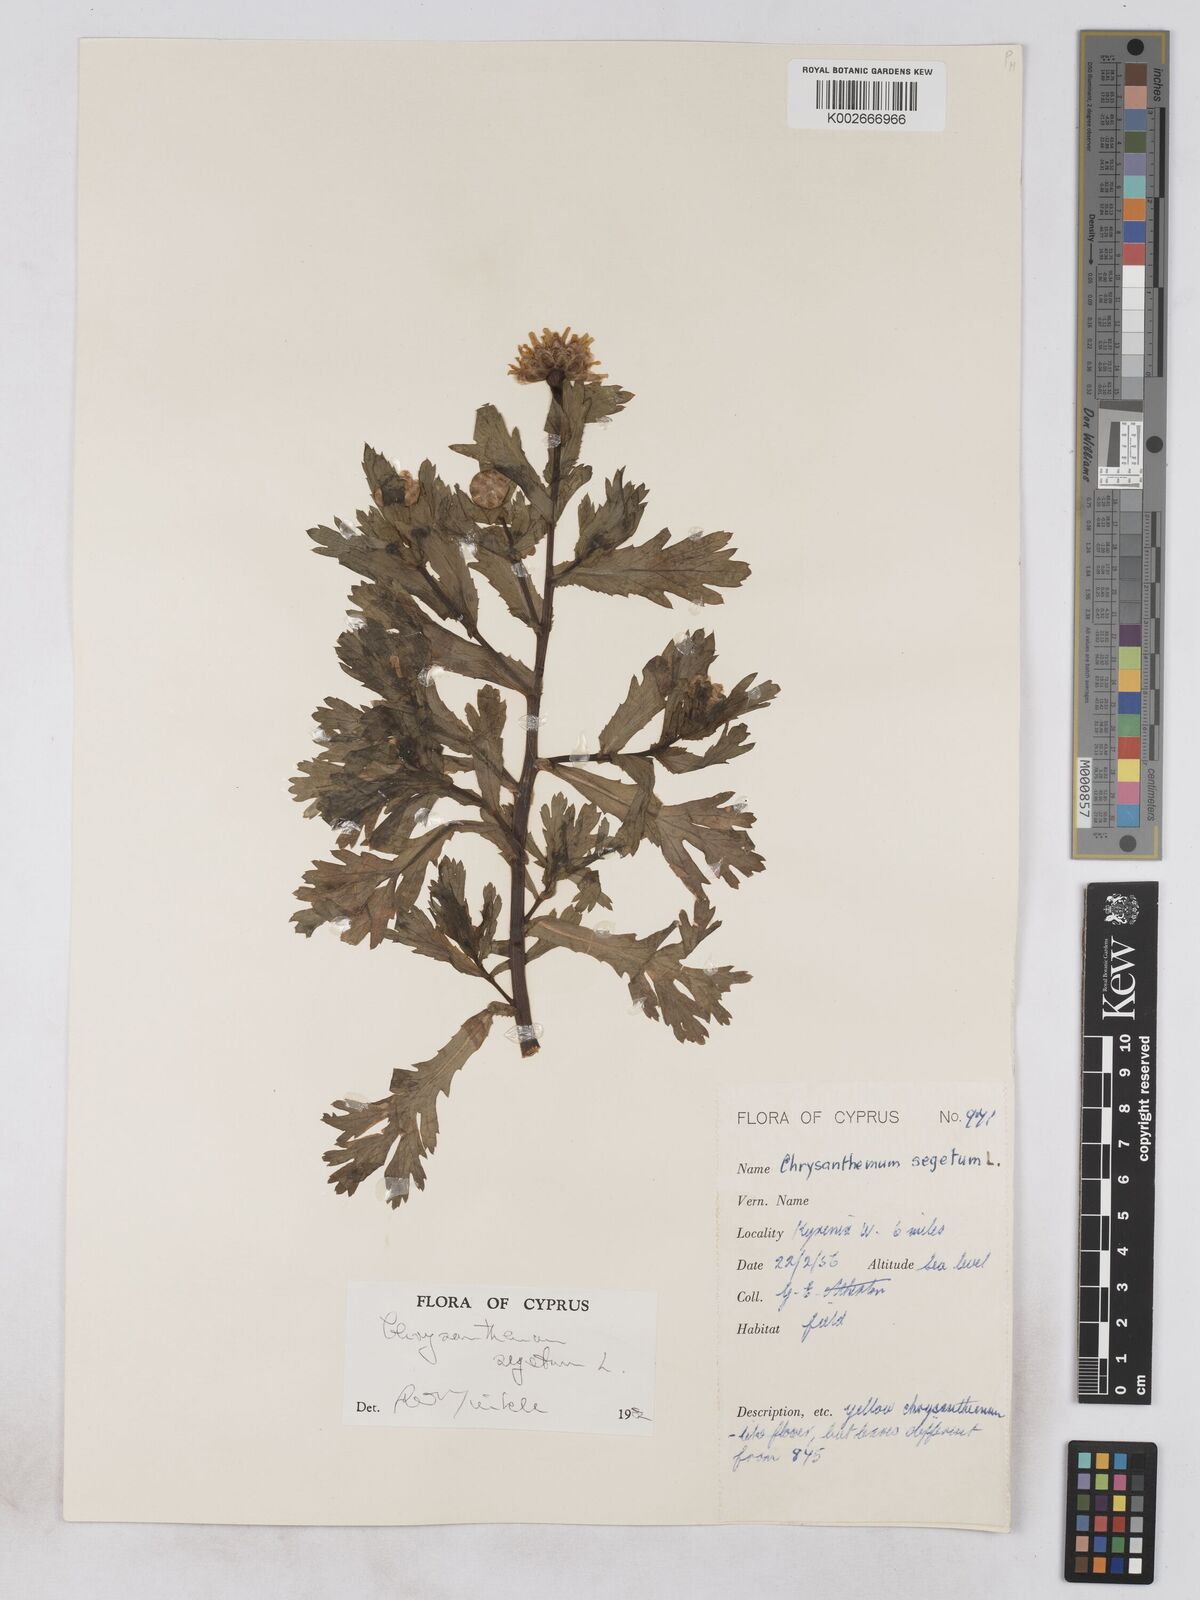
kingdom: Plantae
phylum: Tracheophyta
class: Magnoliopsida
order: Asterales
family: Asteraceae
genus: Glebionis
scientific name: Glebionis segetum
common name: Corndaisy
